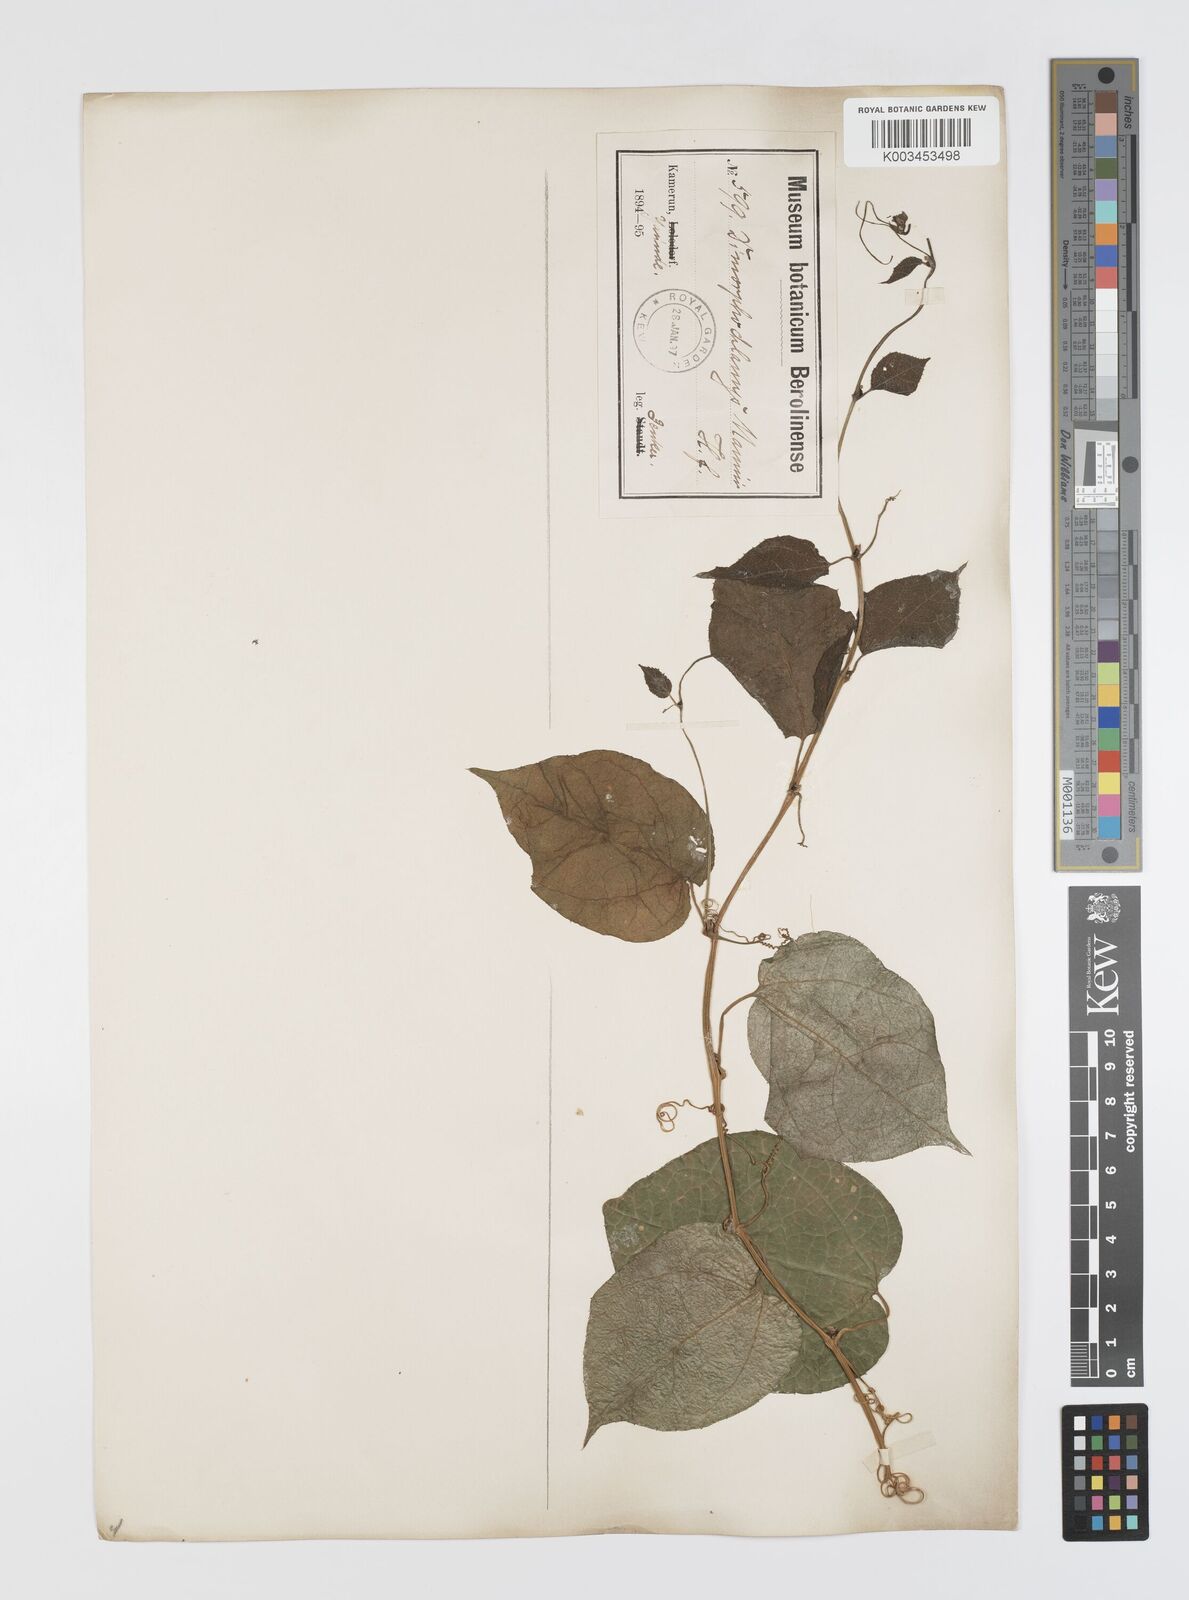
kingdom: Plantae
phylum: Tracheophyta
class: Magnoliopsida
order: Cucurbitales
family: Cucurbitaceae
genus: Momordica
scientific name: Momordica cabrae
